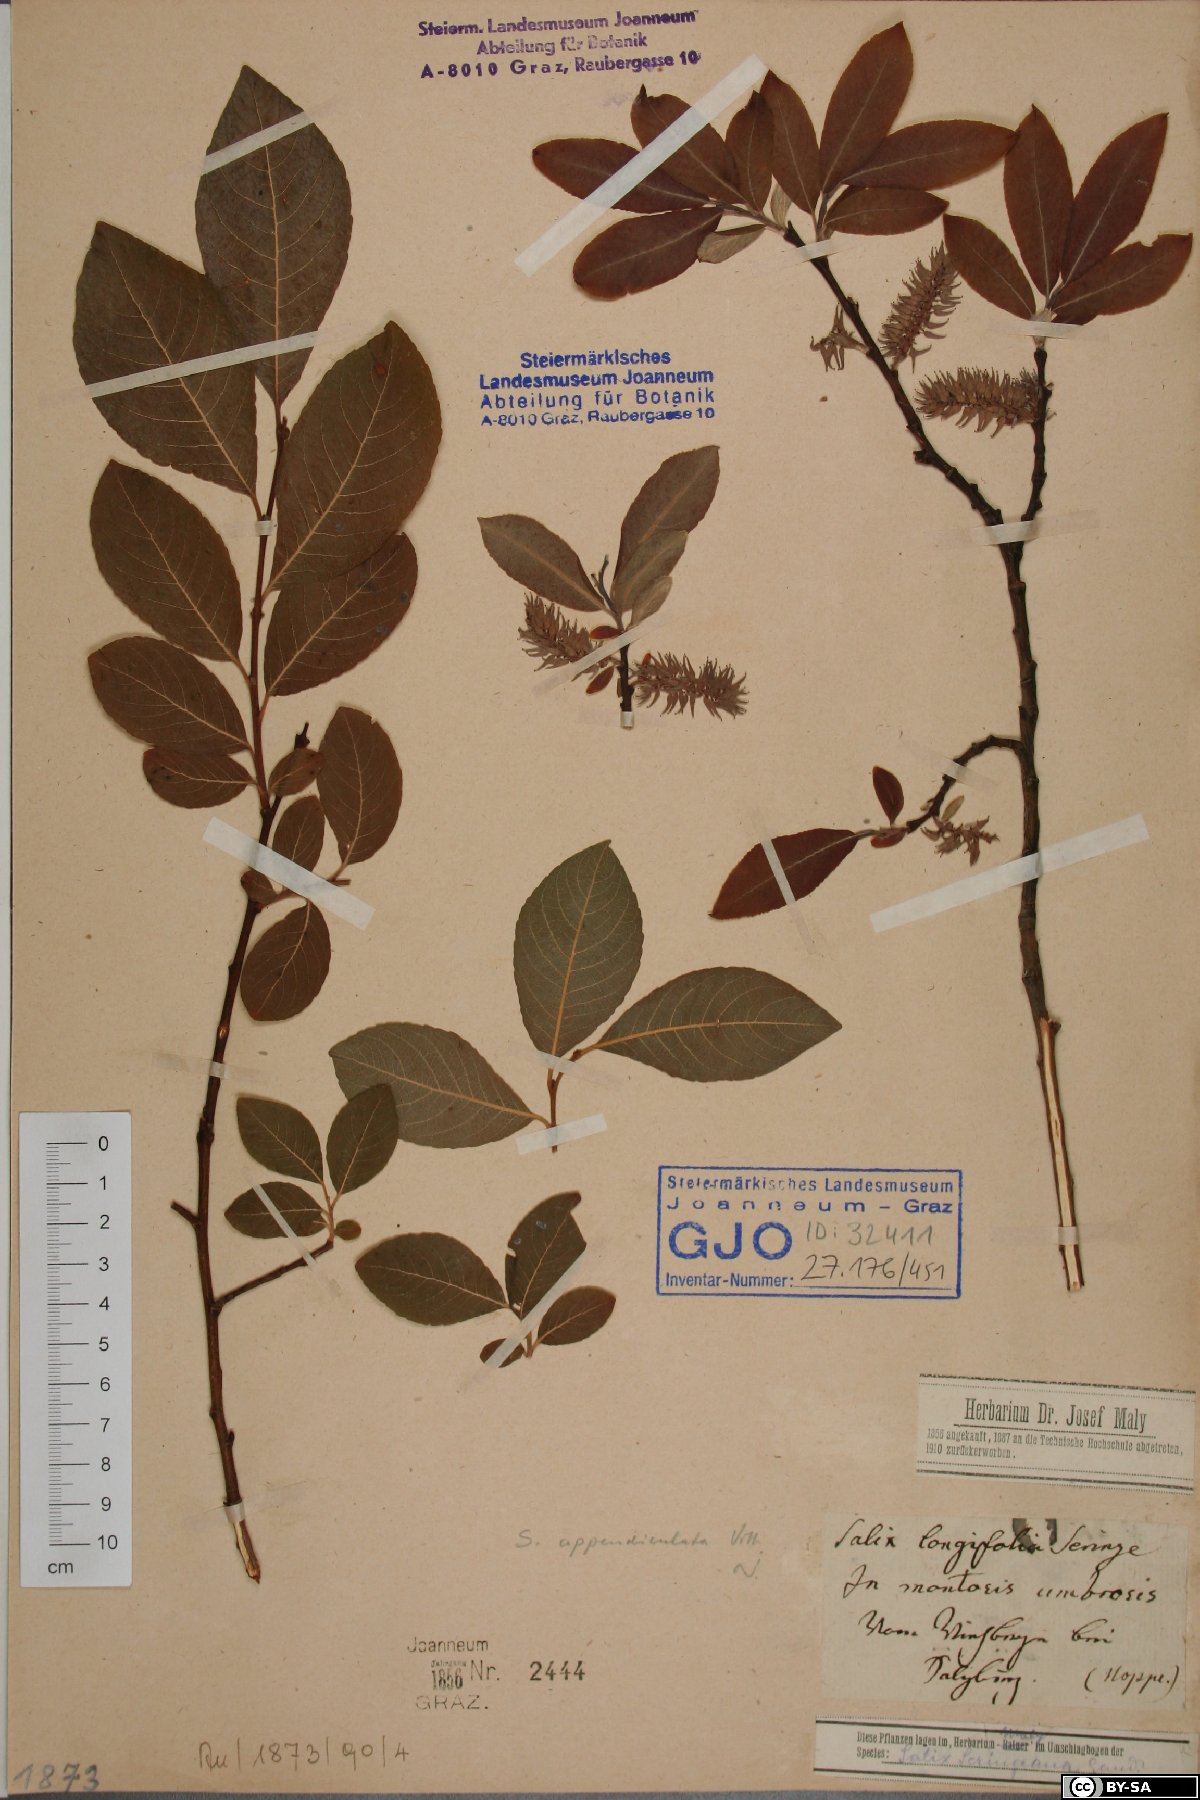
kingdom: Plantae
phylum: Tracheophyta
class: Magnoliopsida
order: Malpighiales
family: Salicaceae
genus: Salix
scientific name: Salix interior
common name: Sandbar willow
